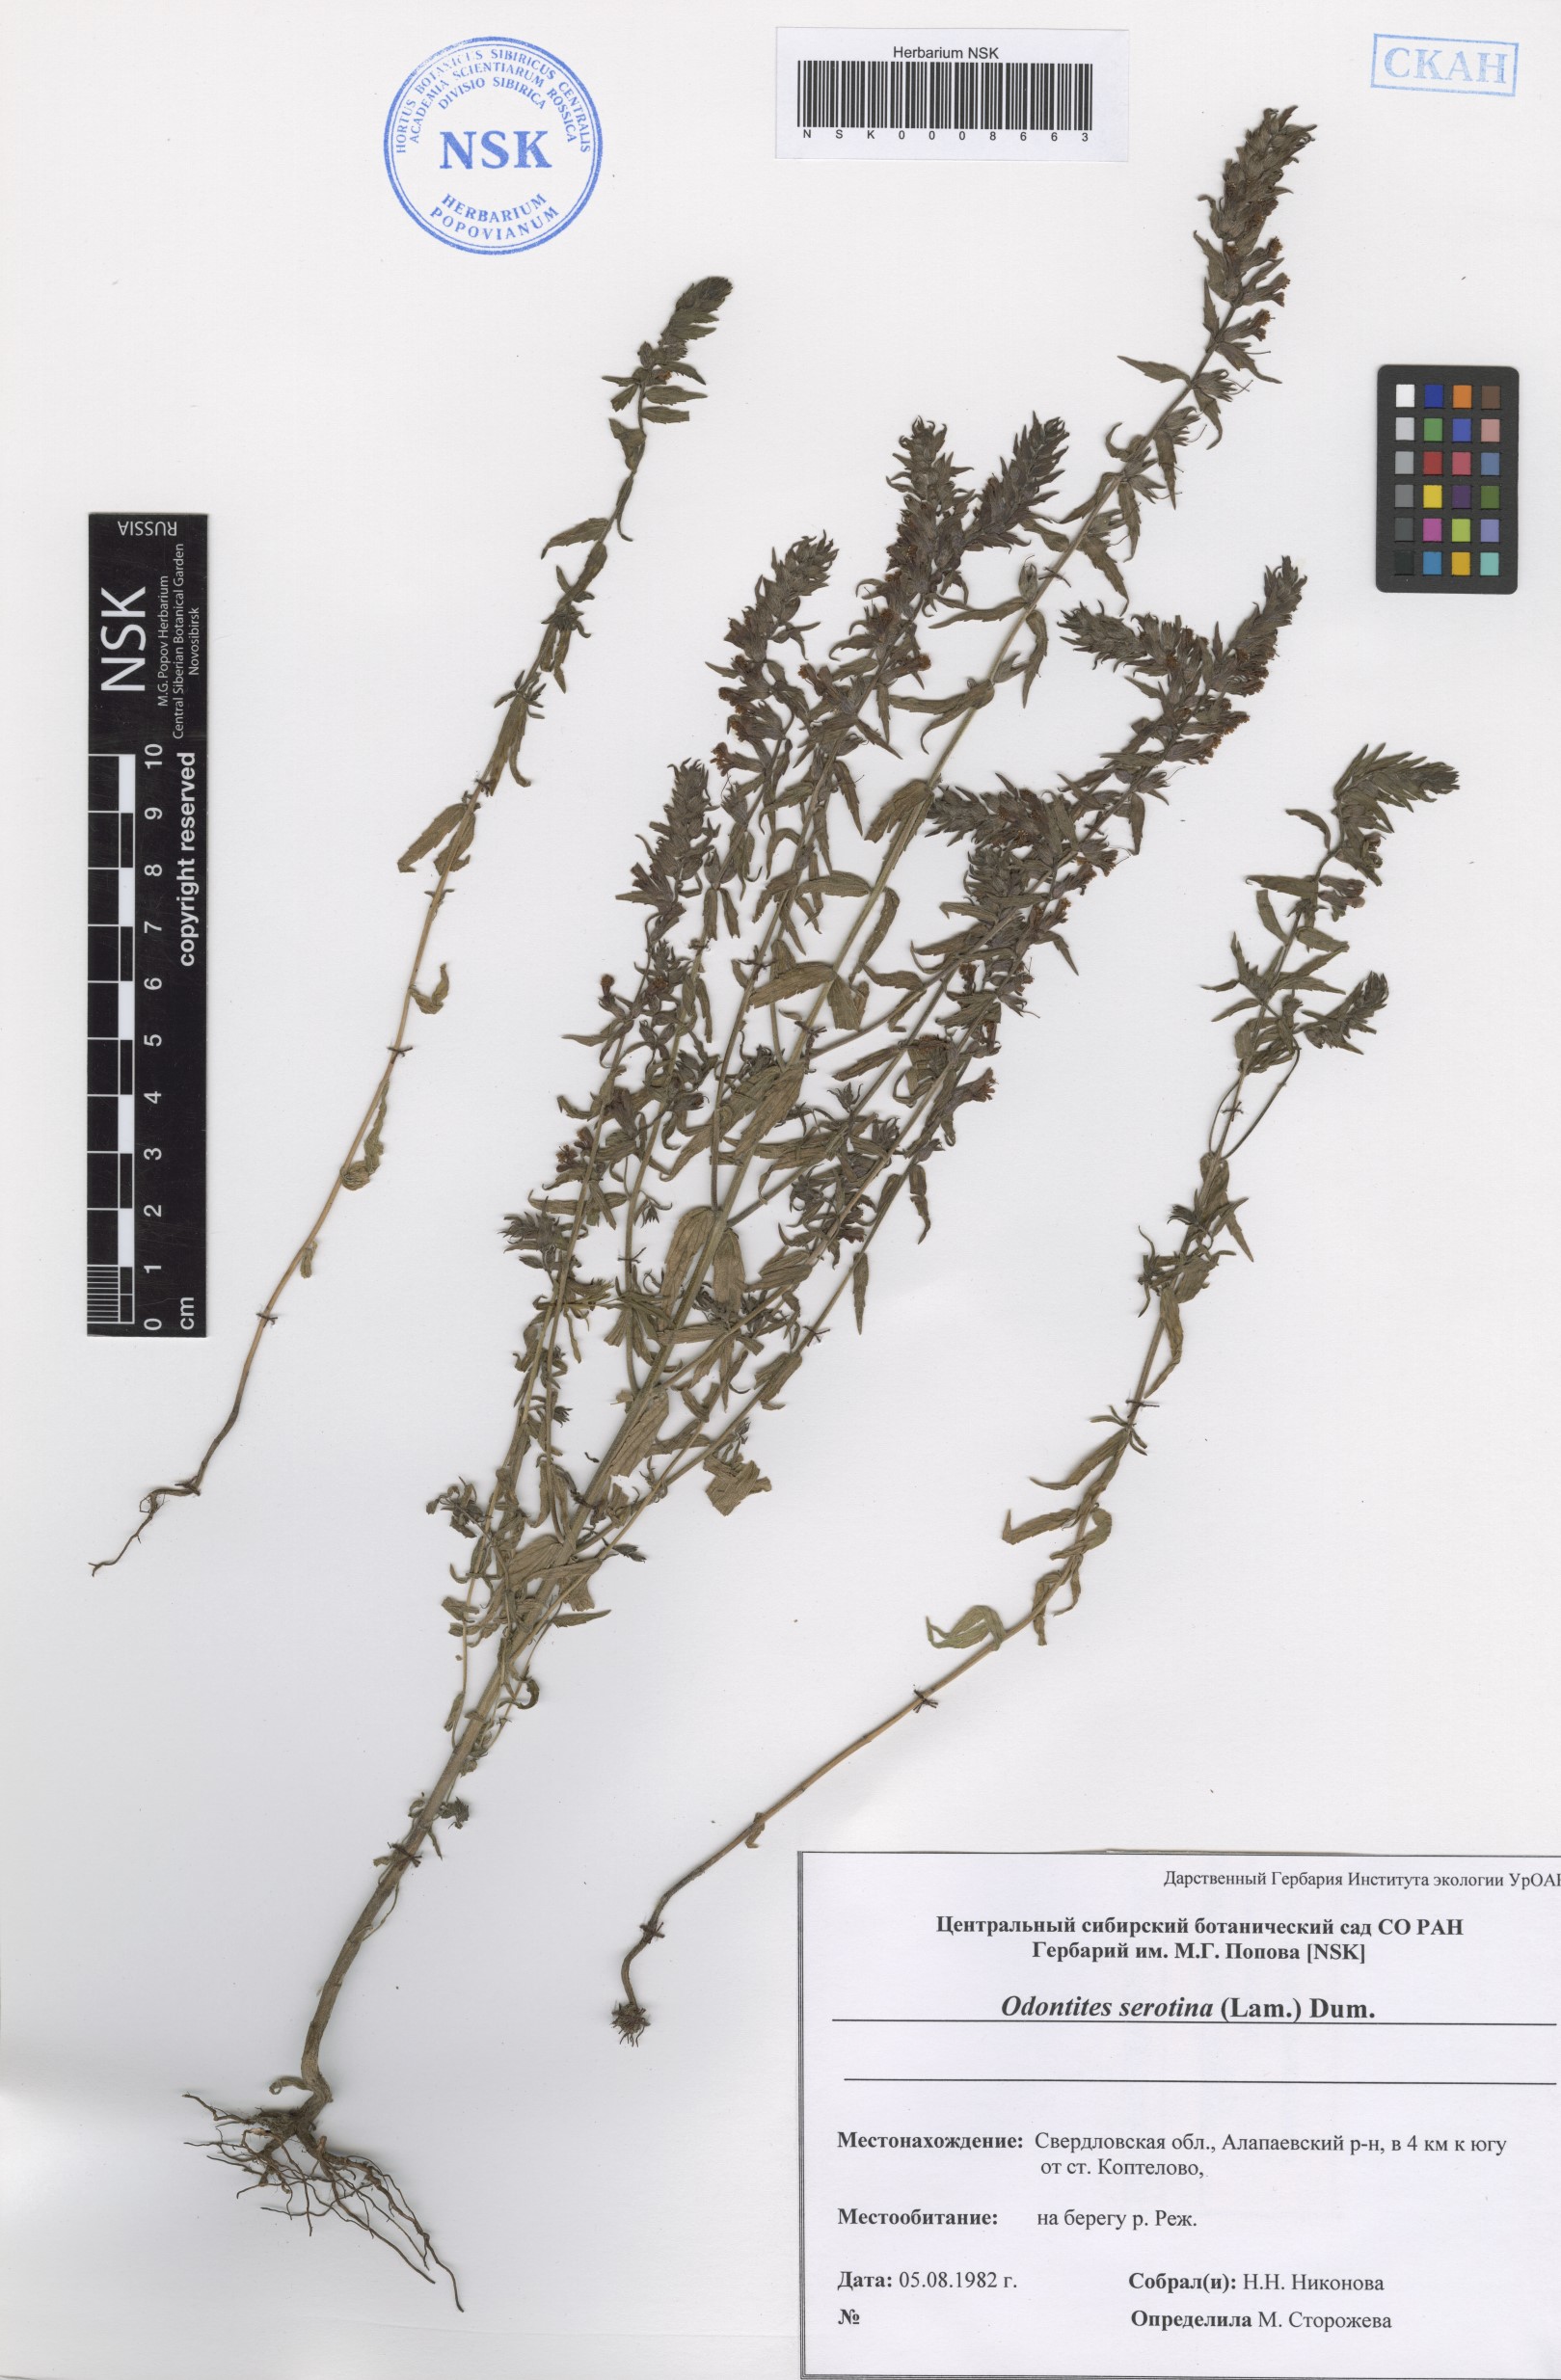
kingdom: Plantae
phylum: Tracheophyta
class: Magnoliopsida
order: Lamiales
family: Orobanchaceae
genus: Odontites
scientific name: Odontites vulgaris
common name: Broomrape
